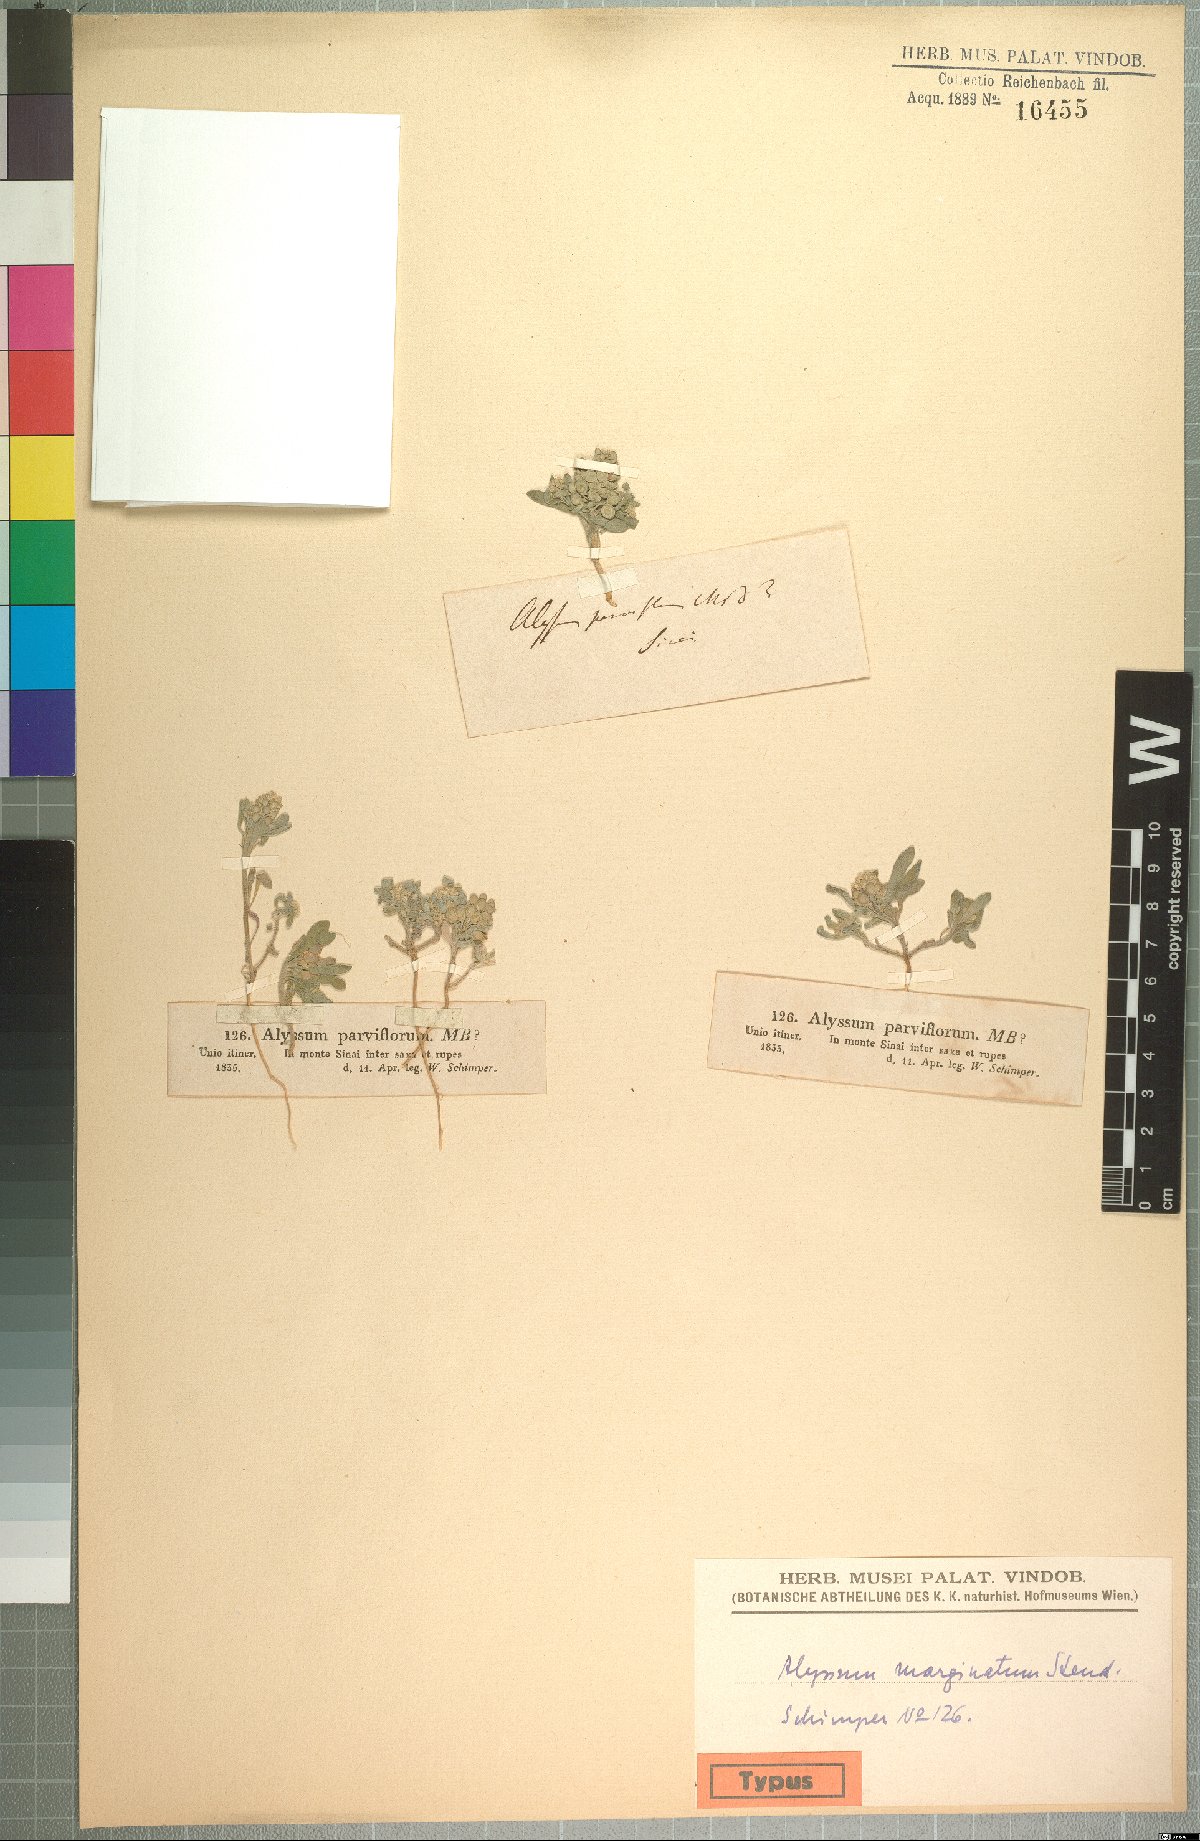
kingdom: Plantae
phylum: Tracheophyta
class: Magnoliopsida
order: Brassicales
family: Brassicaceae
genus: Alyssum
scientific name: Alyssum szovitsianum
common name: Szowits' madwort
